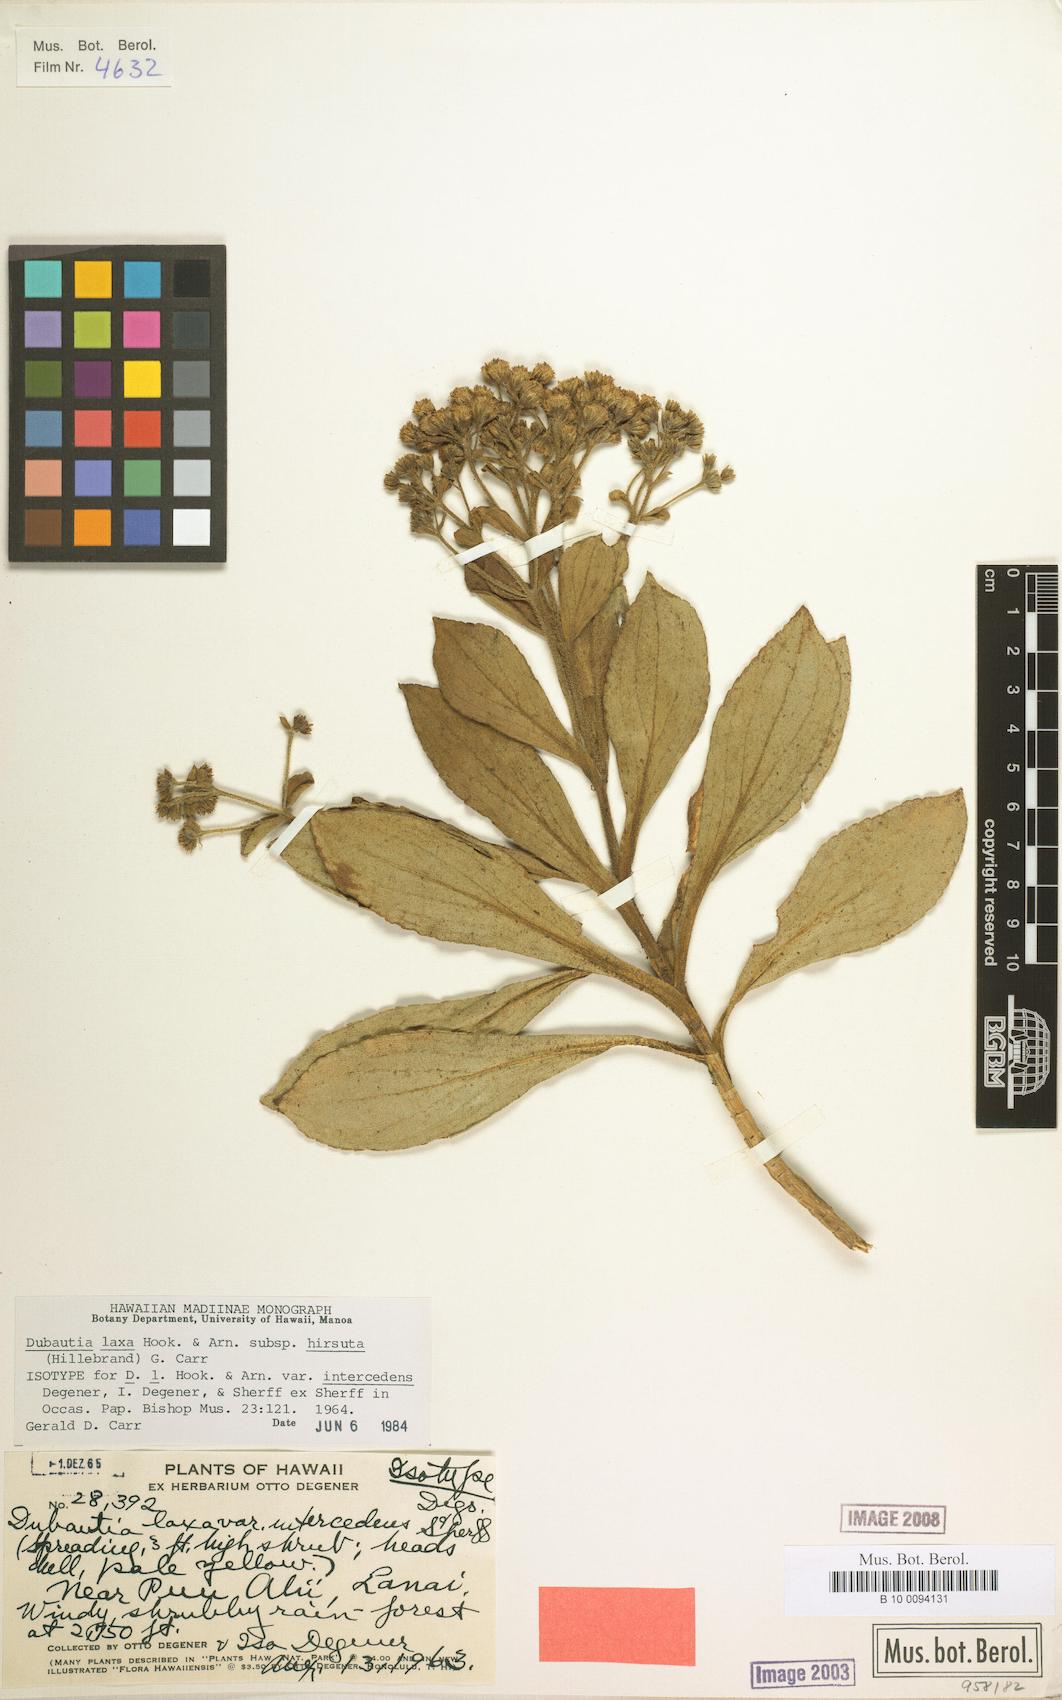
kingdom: Plantae
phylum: Tracheophyta
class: Magnoliopsida
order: Asterales
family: Asteraceae
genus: Dubautia
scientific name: Dubautia laxa
